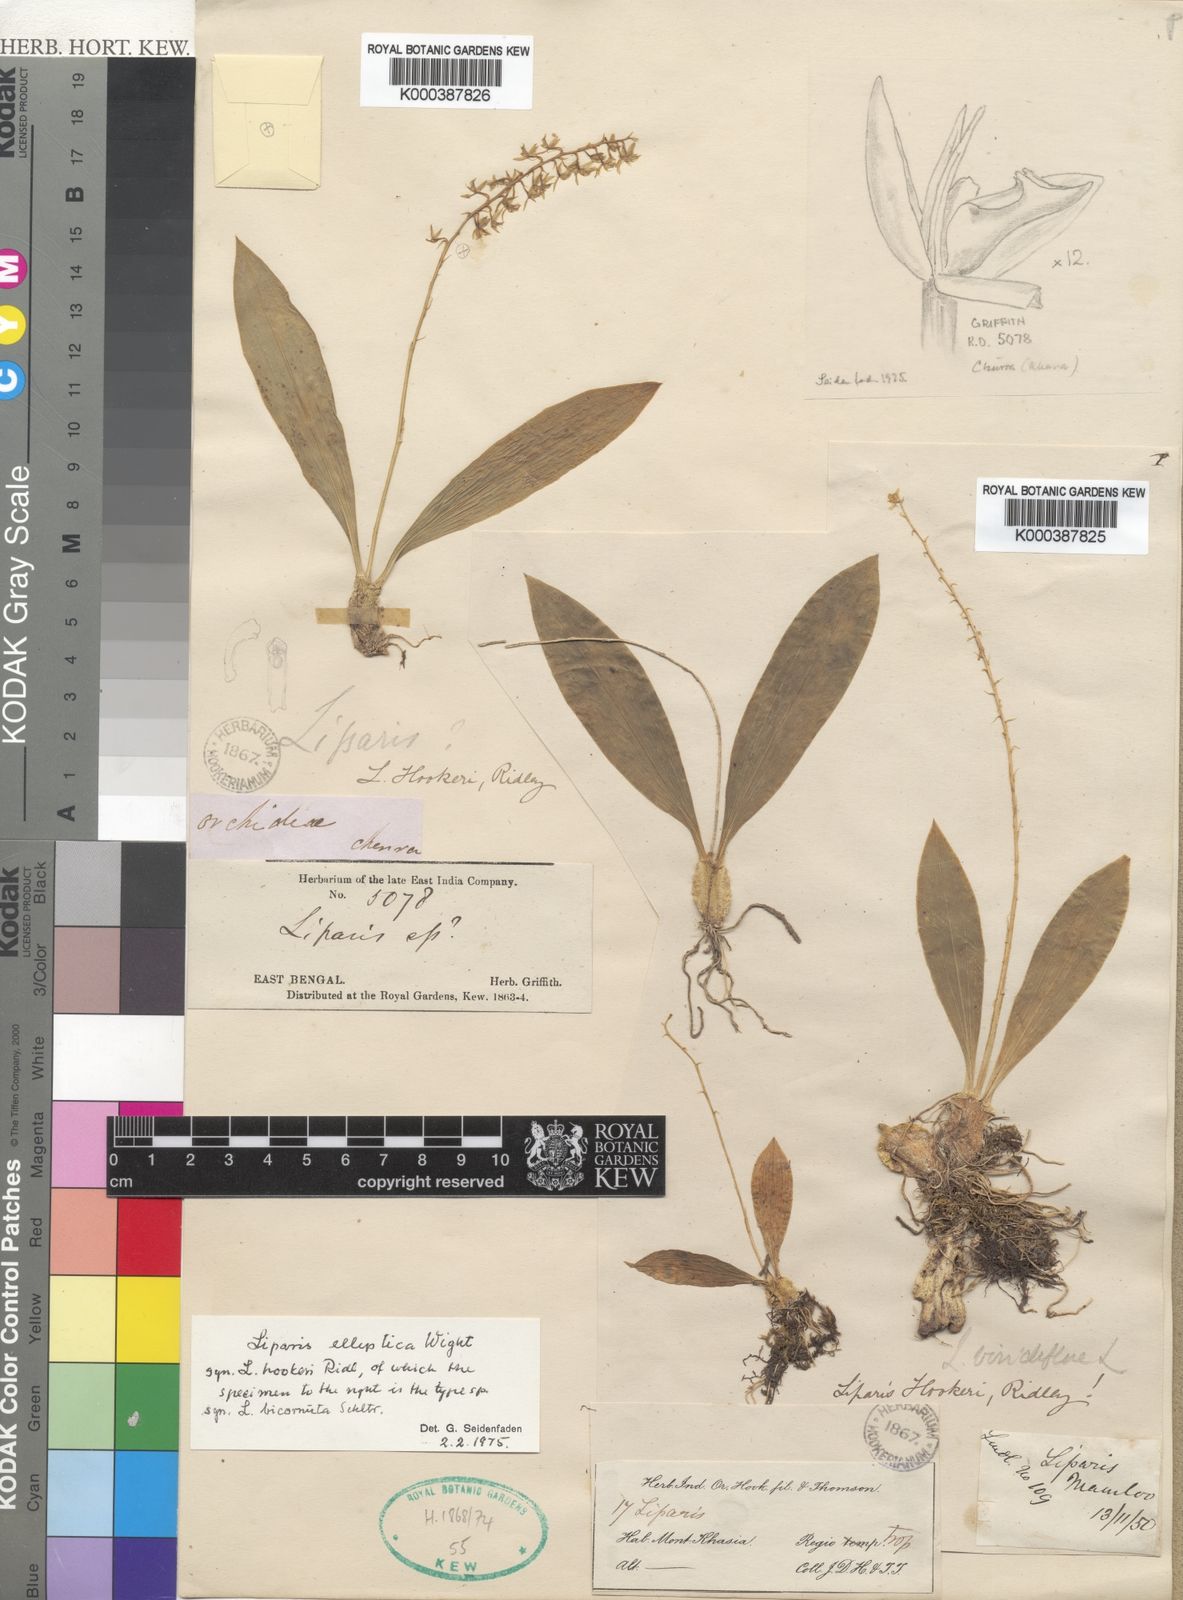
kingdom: Plantae
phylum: Tracheophyta
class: Liliopsida
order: Asparagales
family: Orchidaceae
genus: Liparis
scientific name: Liparis elliptica
